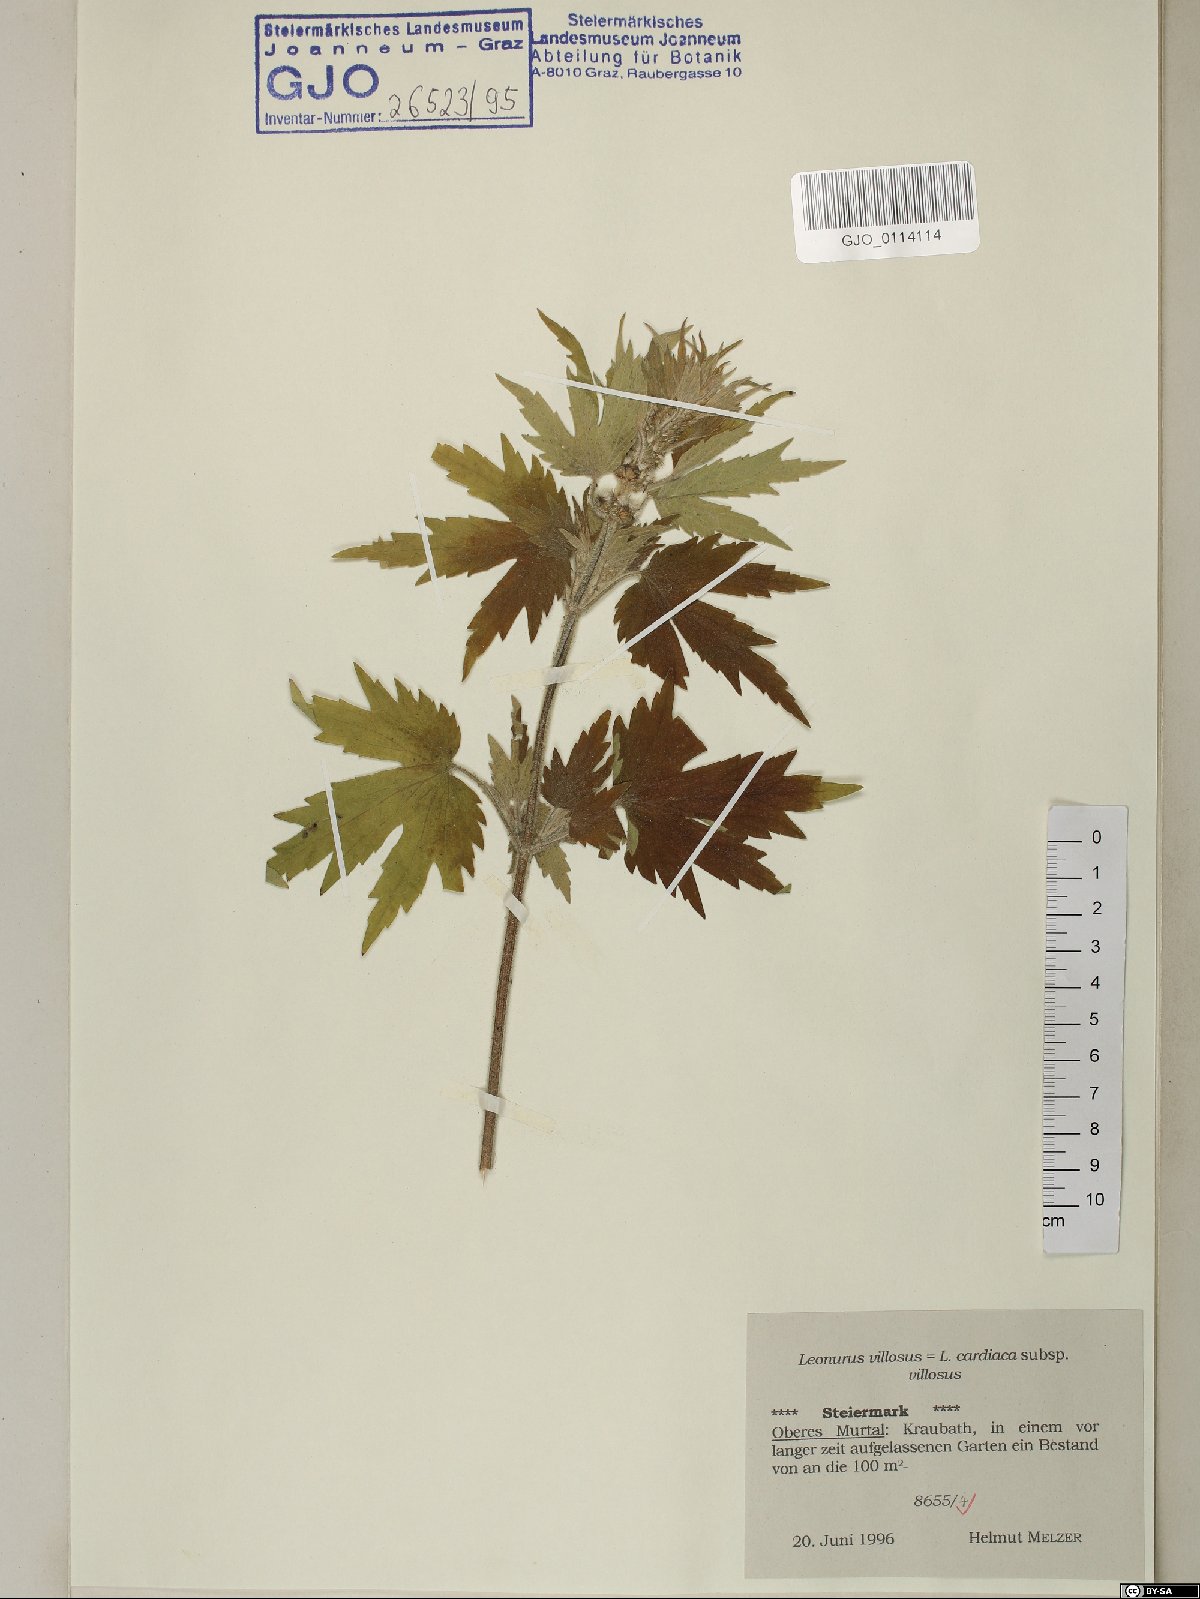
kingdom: Plantae
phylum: Tracheophyta
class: Magnoliopsida
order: Lamiales
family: Lamiaceae
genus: Leonurus
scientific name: Leonurus quinquelobatus
